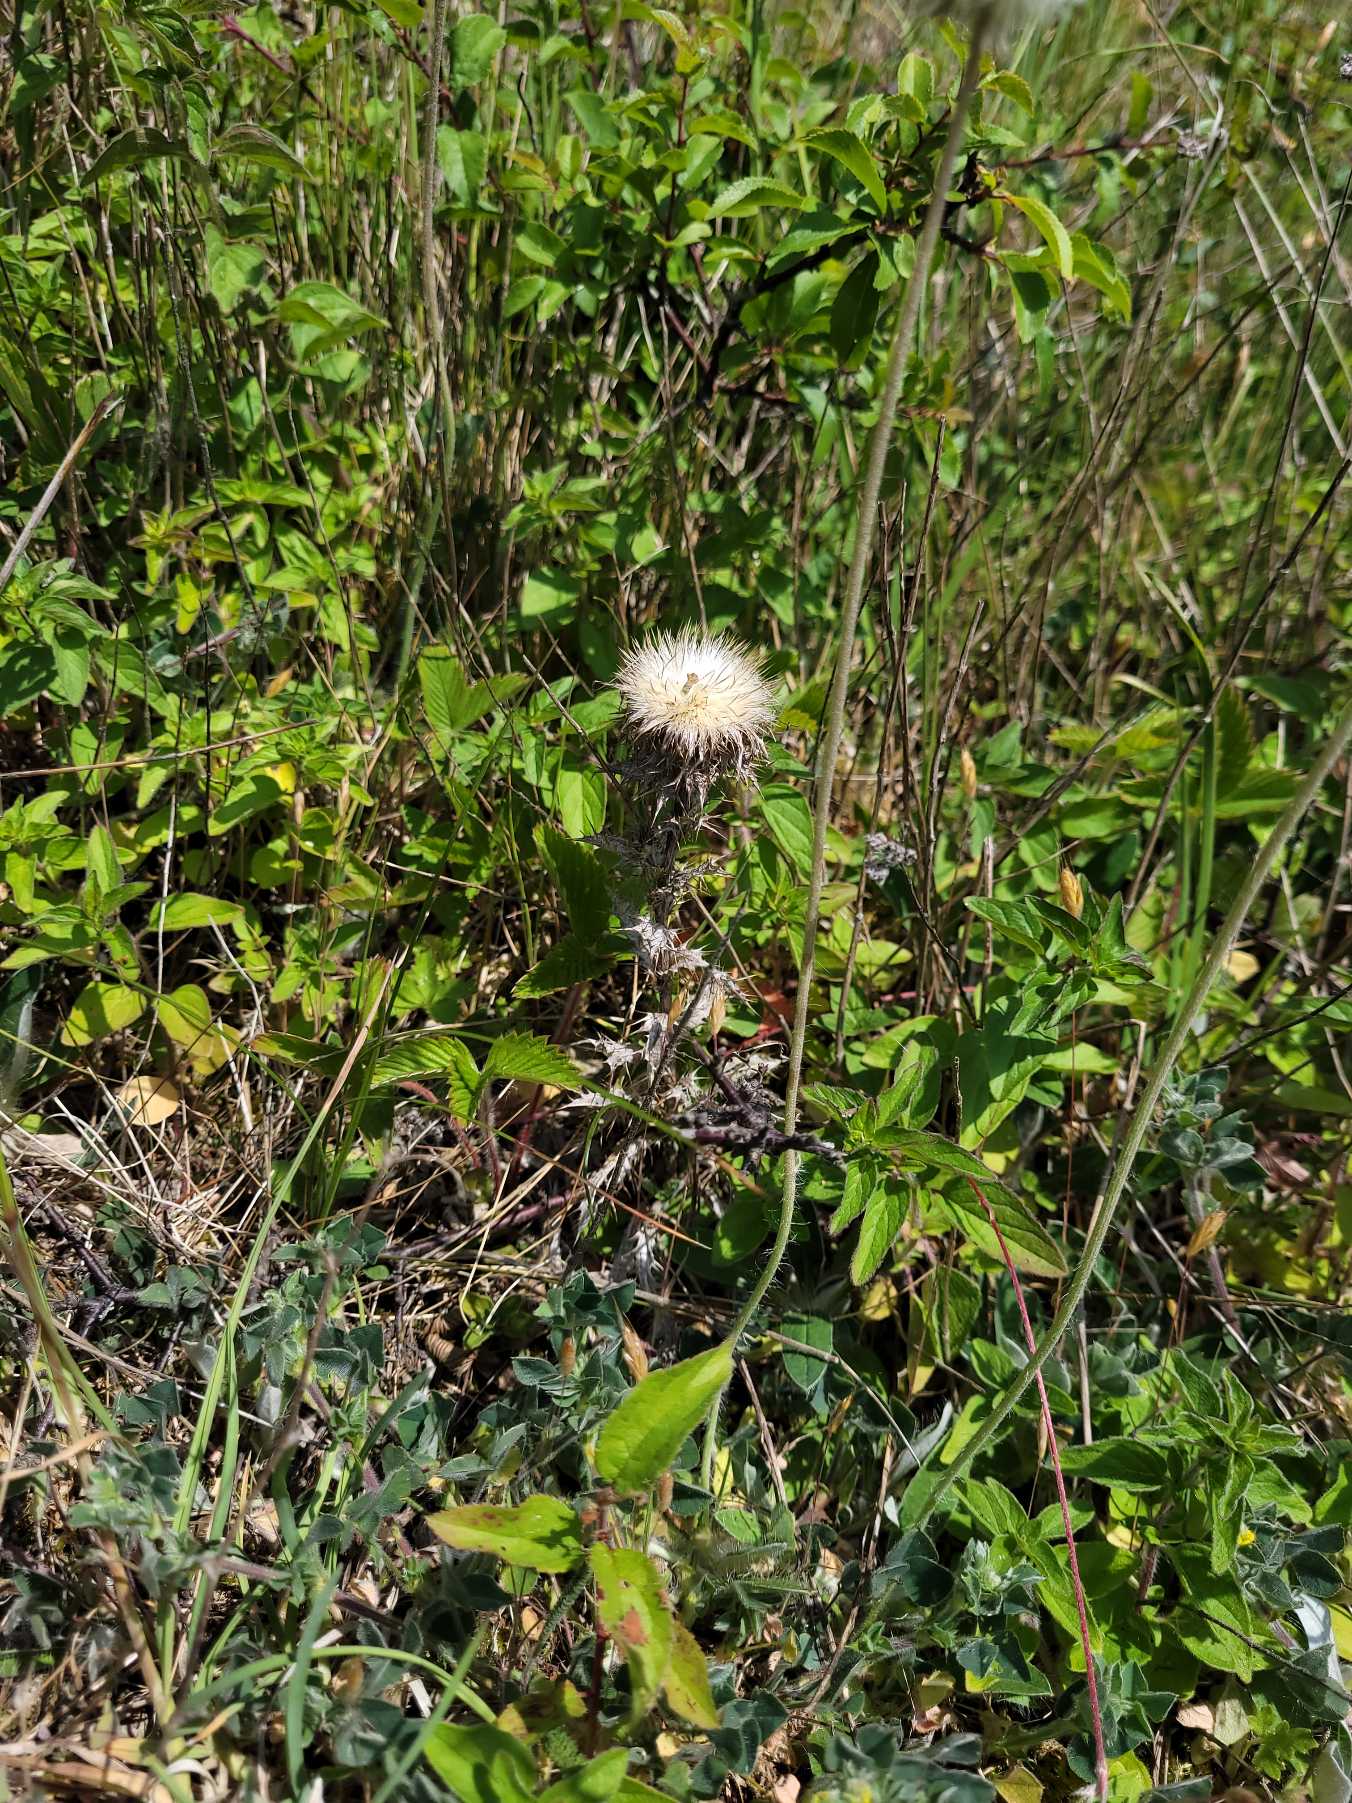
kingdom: Plantae
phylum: Tracheophyta
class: Magnoliopsida
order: Asterales
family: Asteraceae
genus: Carlina
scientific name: Carlina vulgaris
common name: Bakketidsel
